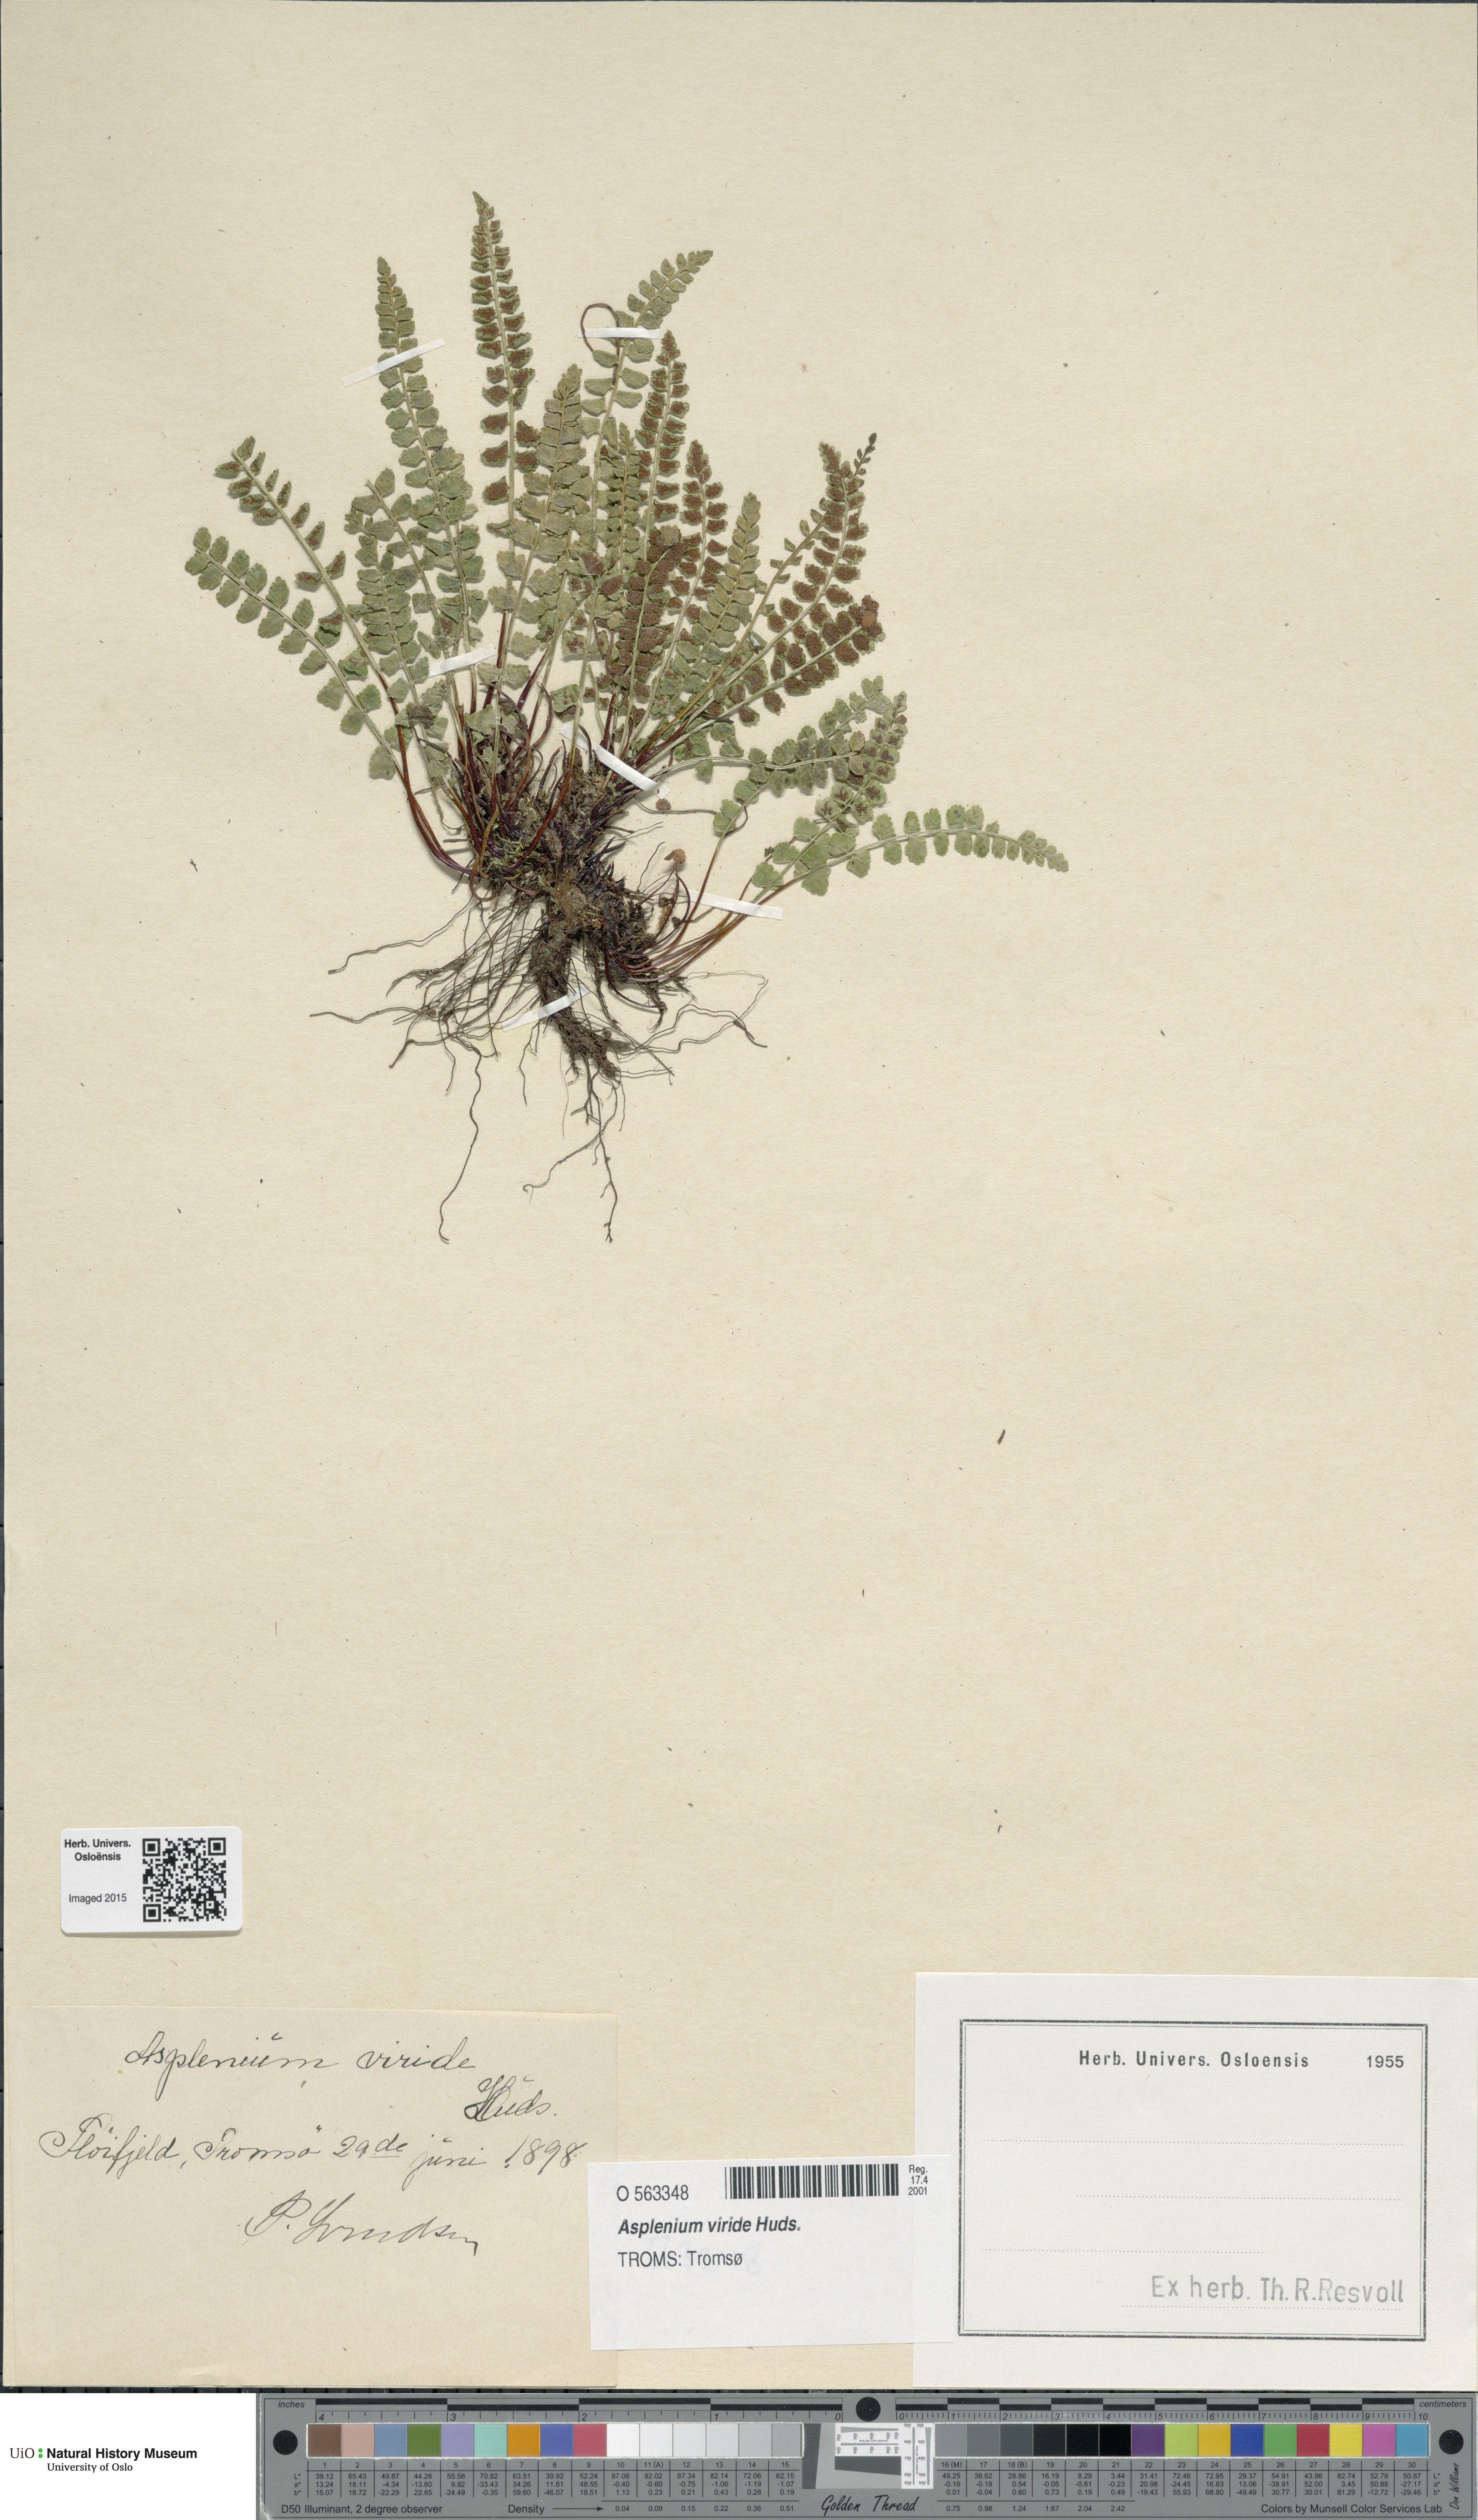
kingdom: Plantae
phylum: Tracheophyta
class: Polypodiopsida
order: Polypodiales
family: Aspleniaceae
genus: Asplenium
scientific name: Asplenium viride
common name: Green spleenwort
